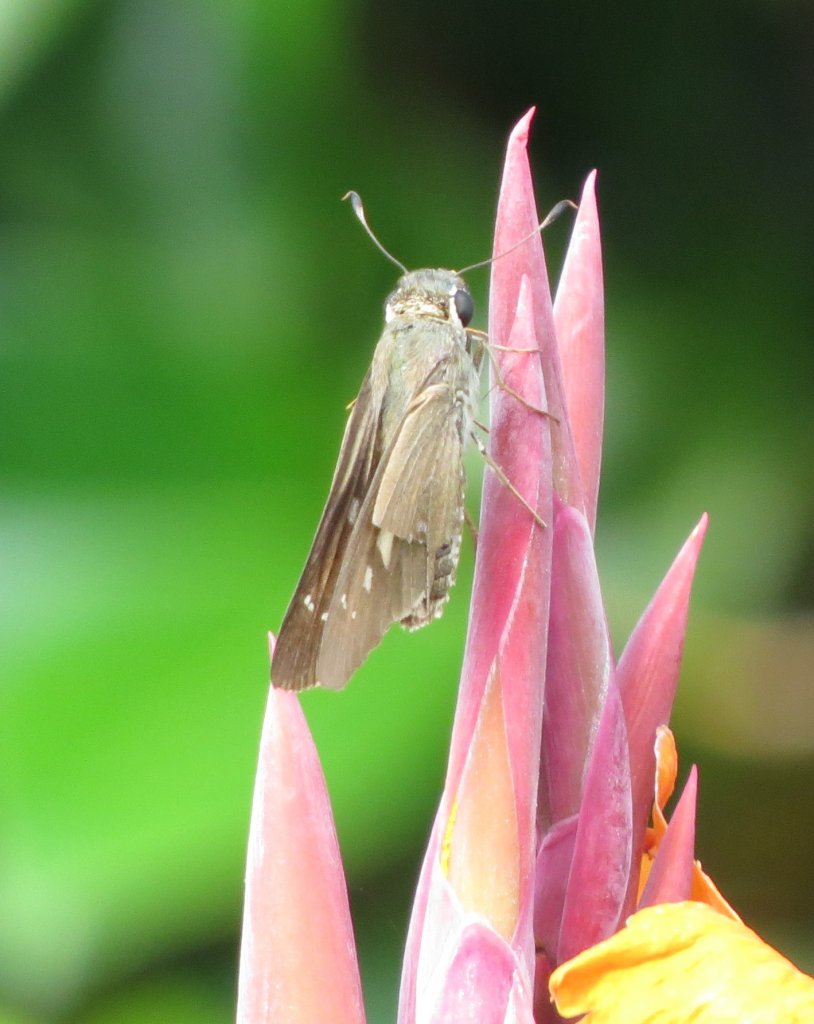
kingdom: Animalia
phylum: Arthropoda
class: Insecta
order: Lepidoptera
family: Hesperiidae
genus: Calpodes
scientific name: Calpodes ethlius
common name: Brazilian Skipper
